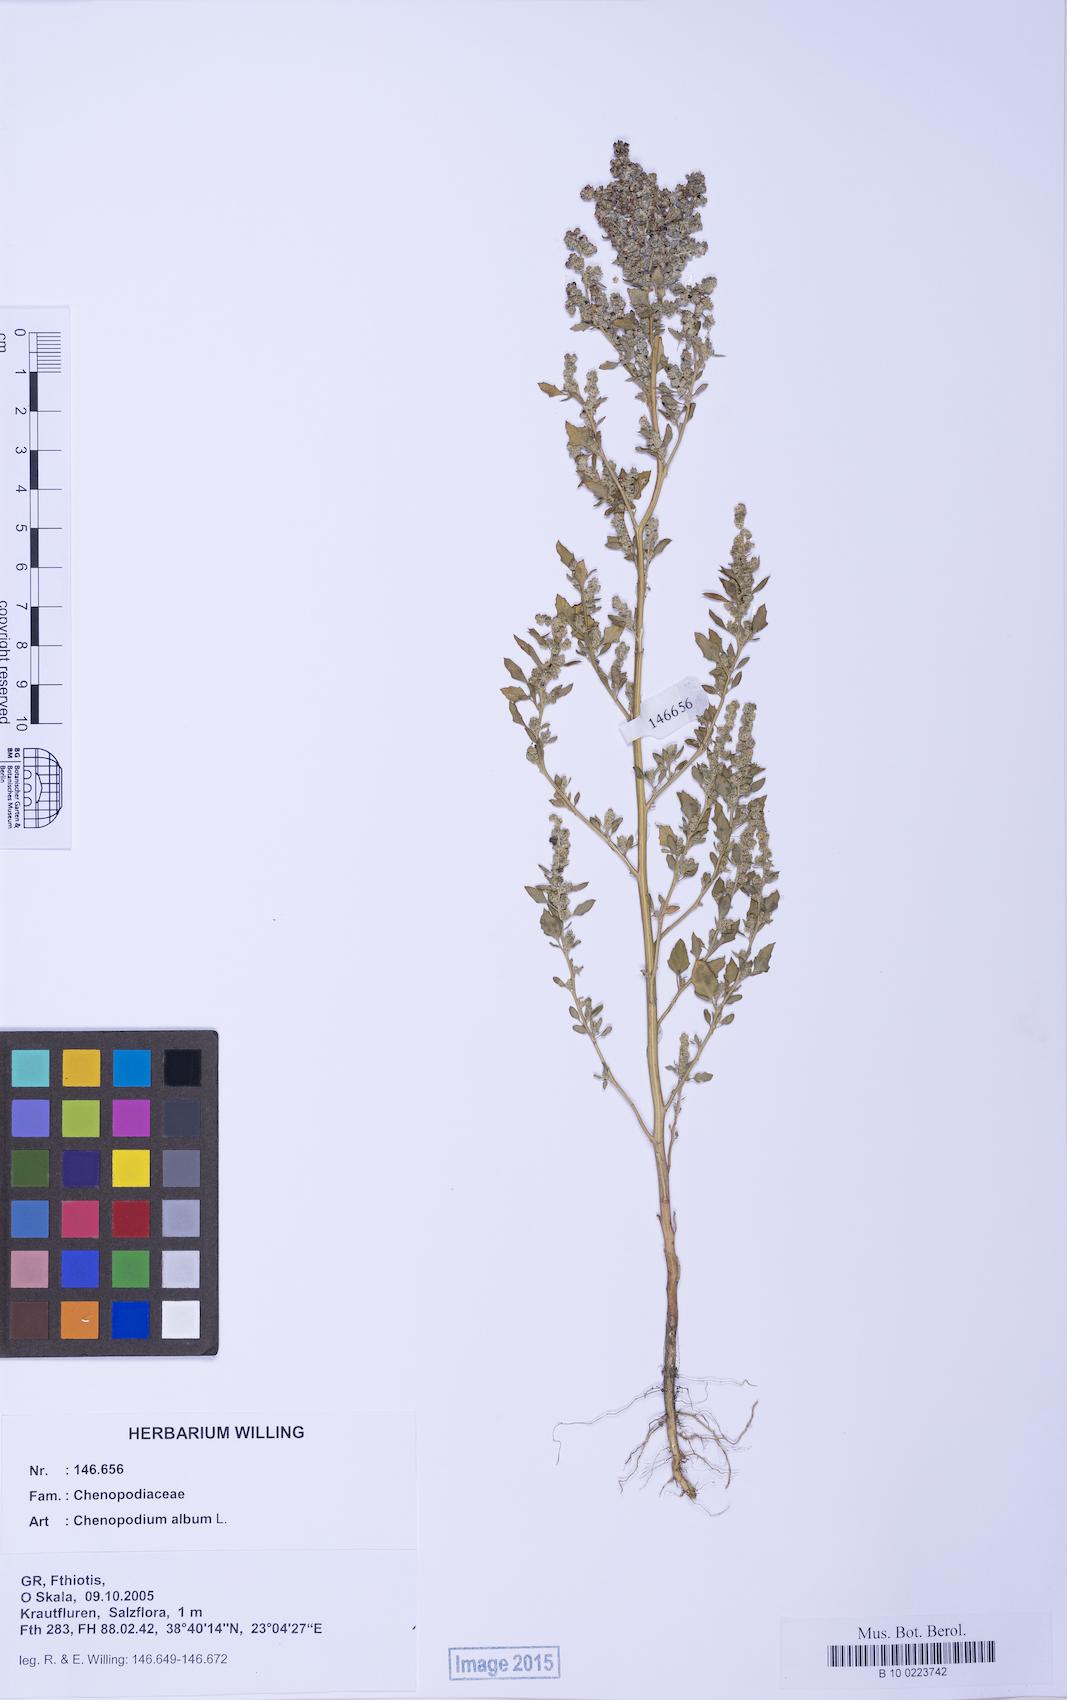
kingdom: Plantae
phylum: Tracheophyta
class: Magnoliopsida
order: Caryophyllales
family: Amaranthaceae
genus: Chenopodium
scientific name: Chenopodium album
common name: Fat-hen
